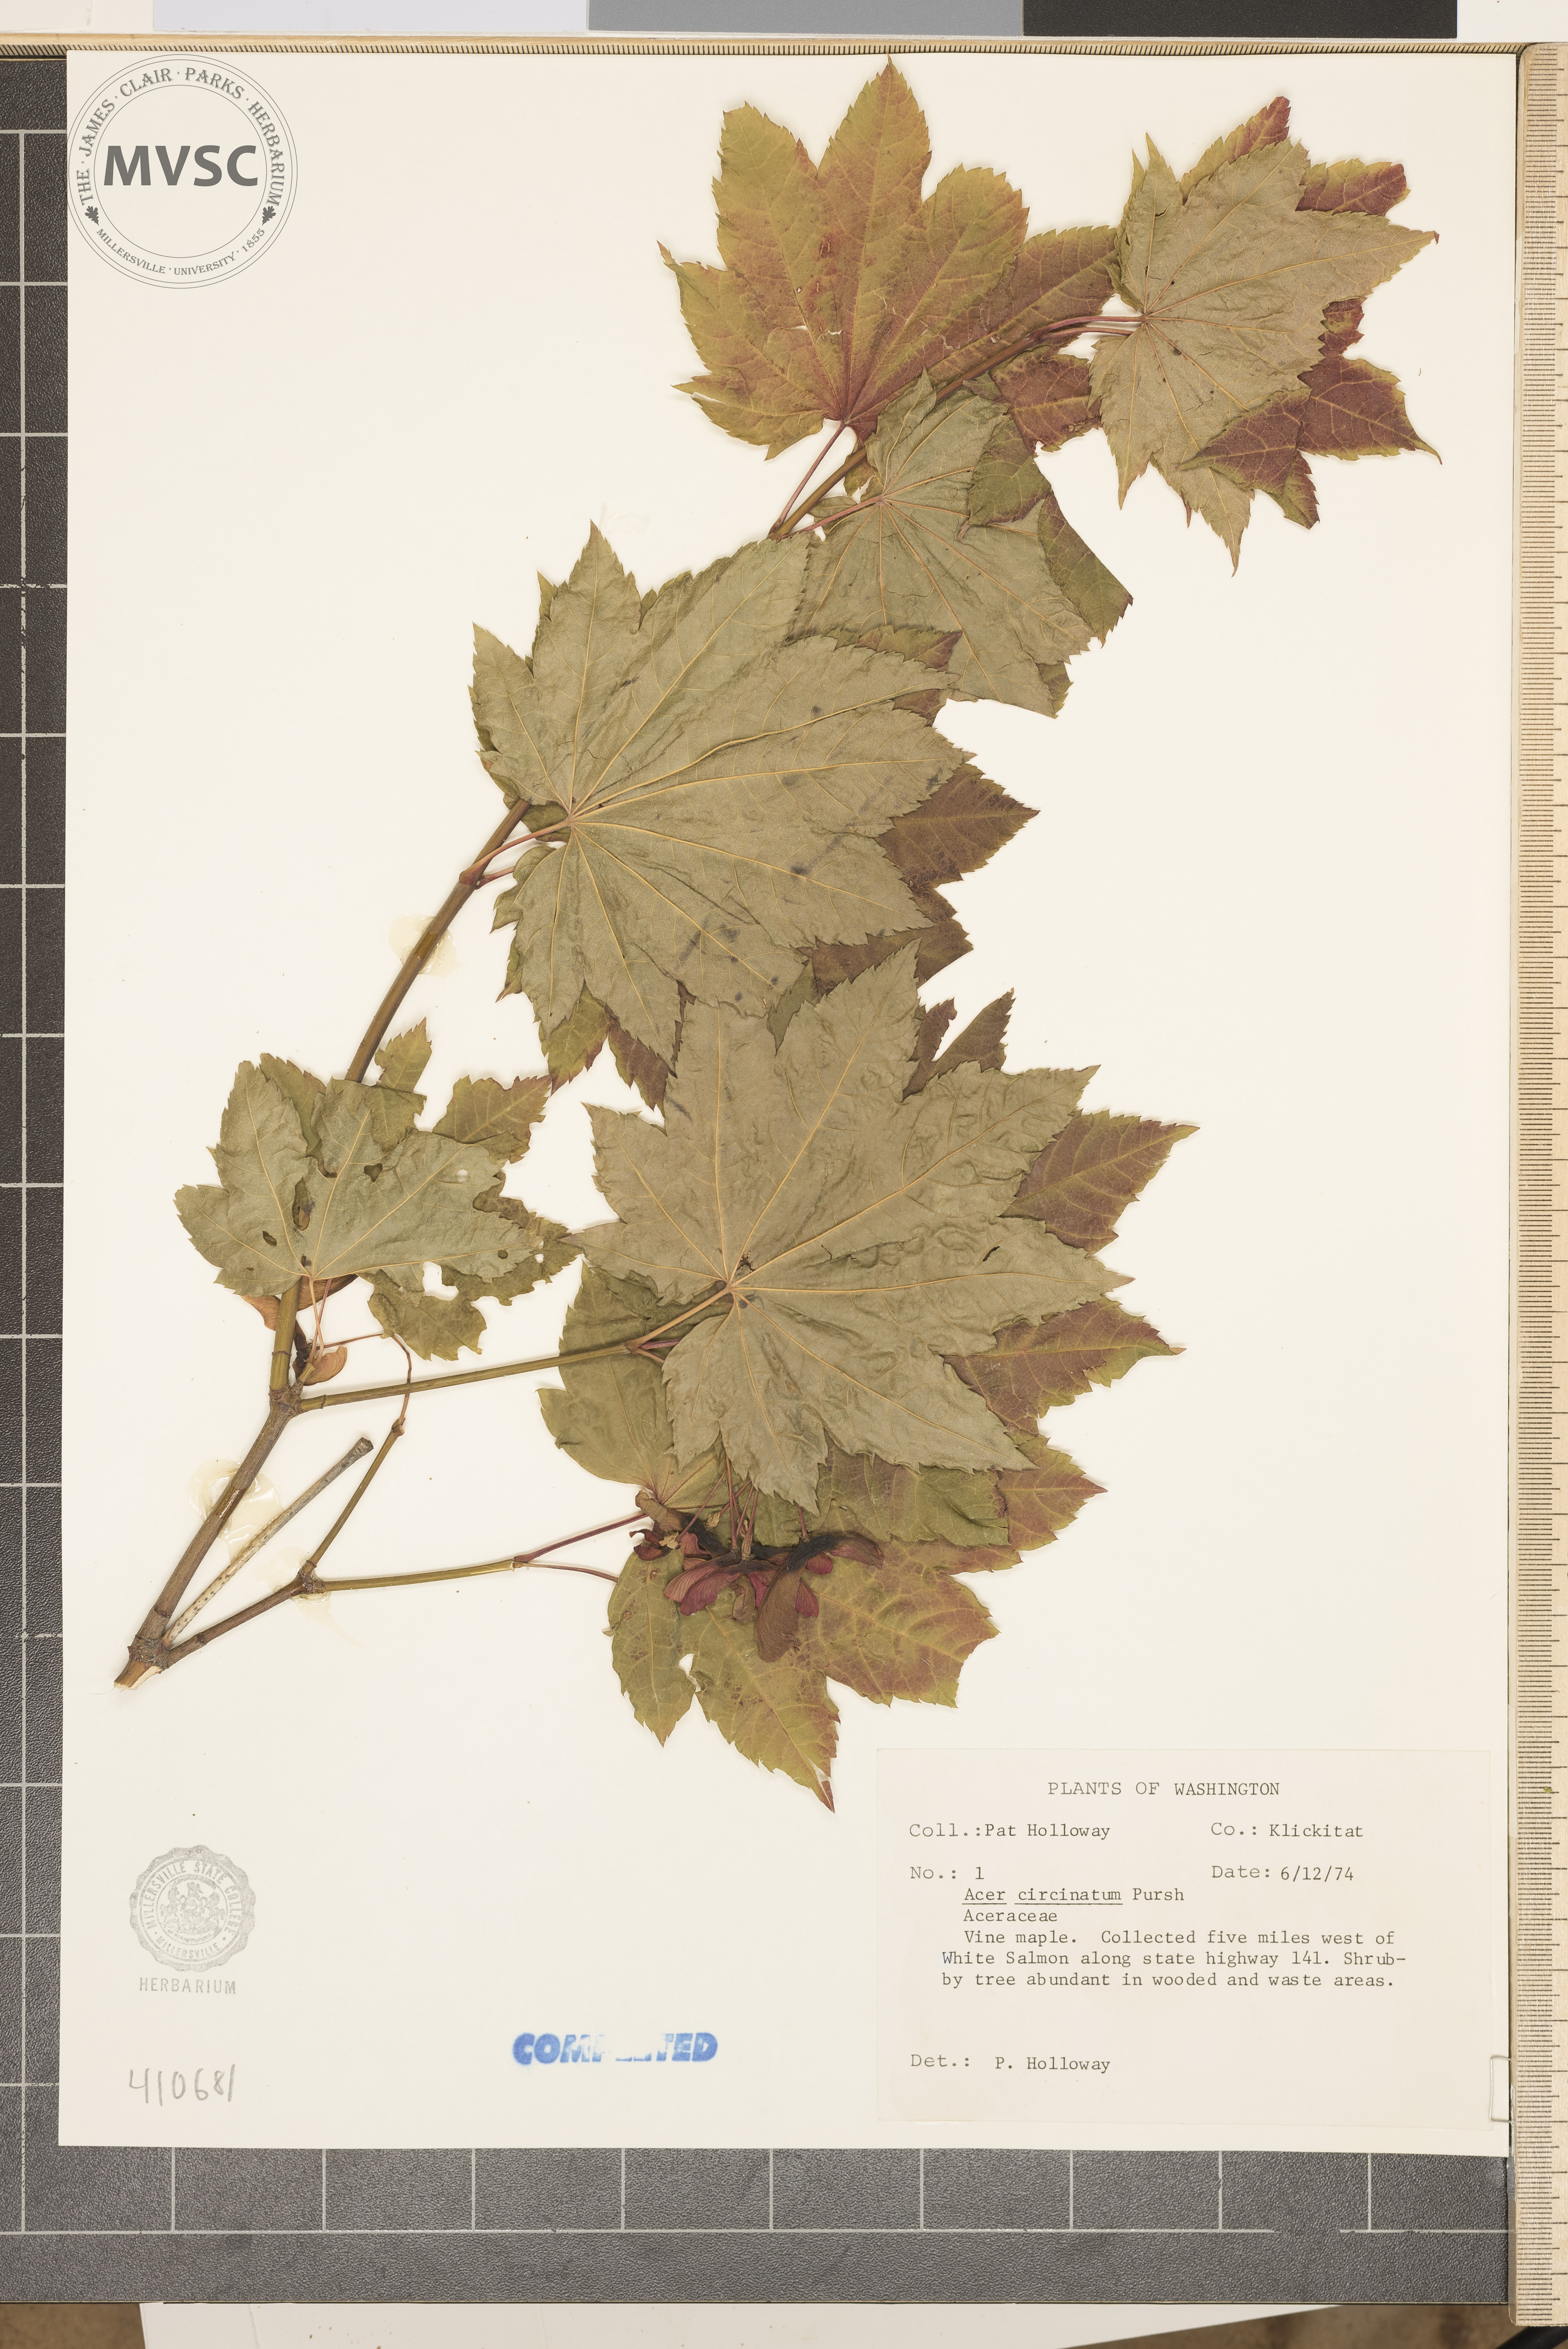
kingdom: Plantae
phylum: Tracheophyta
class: Magnoliopsida
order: Sapindales
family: Sapindaceae
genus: Acer
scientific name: Acer circinatum
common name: Vine maple
